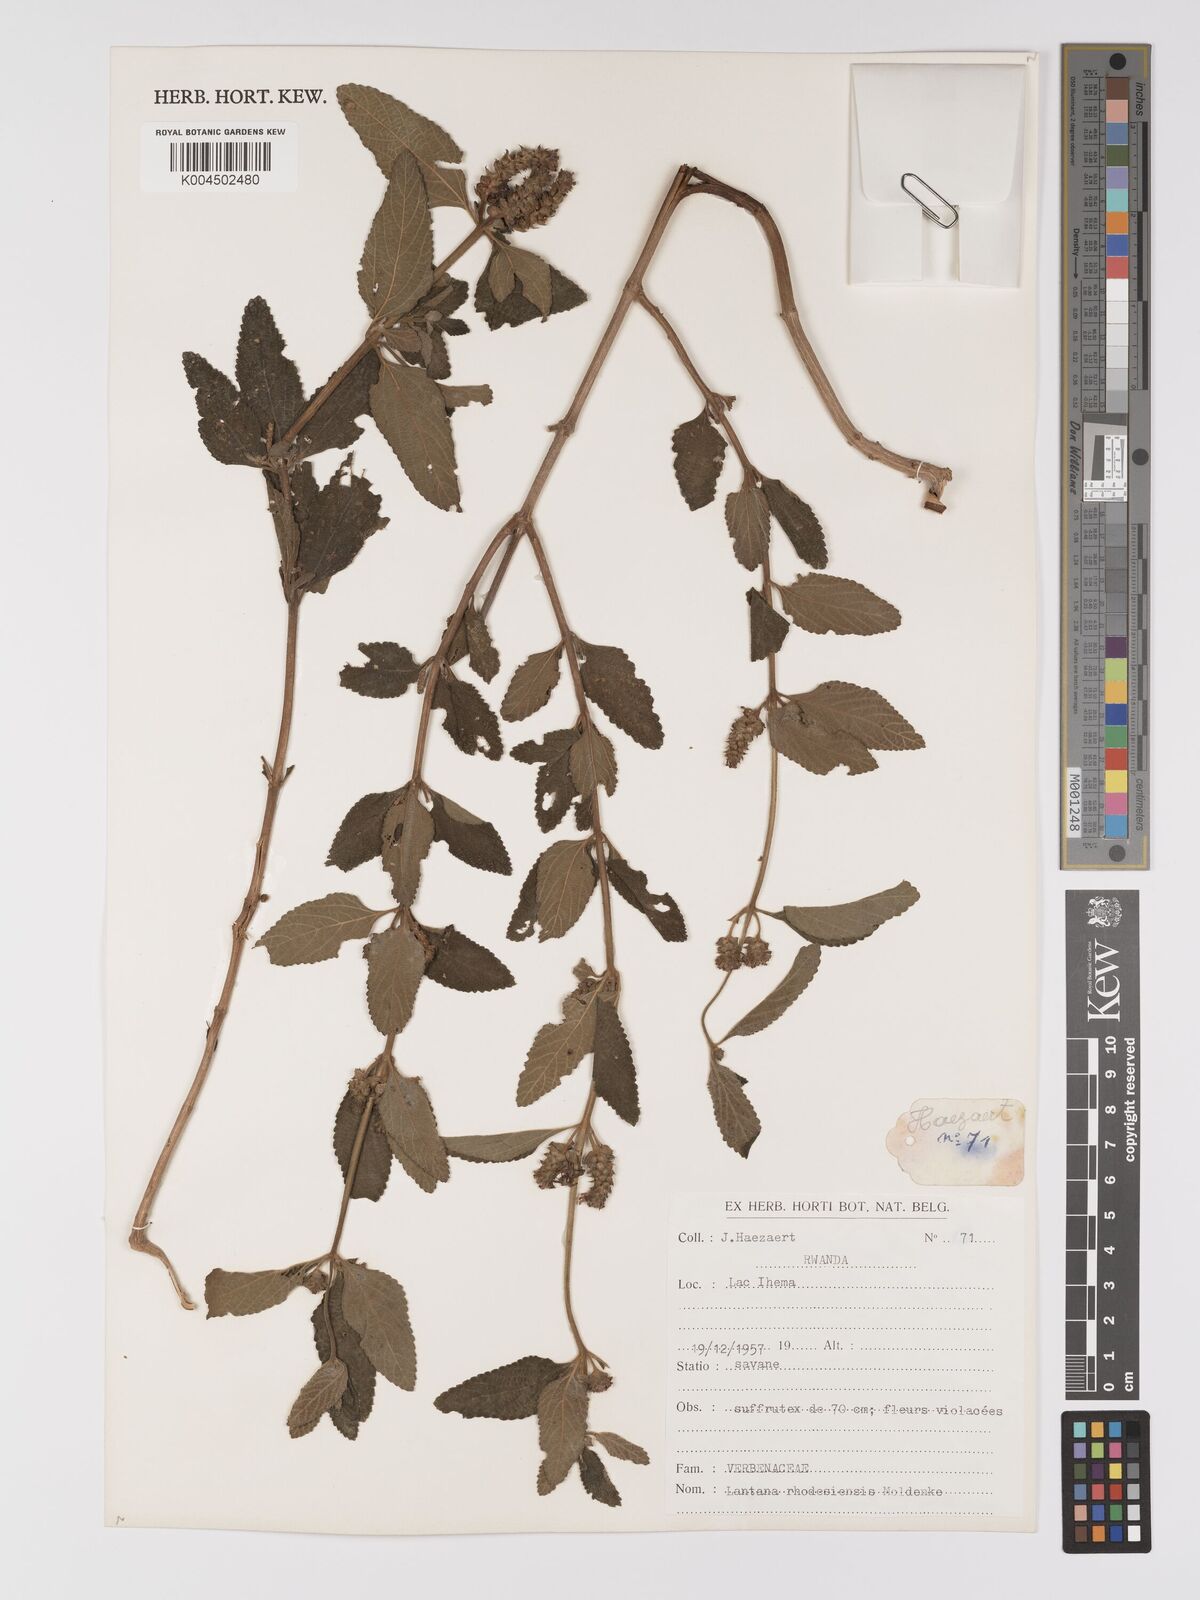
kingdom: Plantae
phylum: Tracheophyta
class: Magnoliopsida
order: Lamiales
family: Verbenaceae
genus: Lantana
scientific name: Lantana ukambensis
